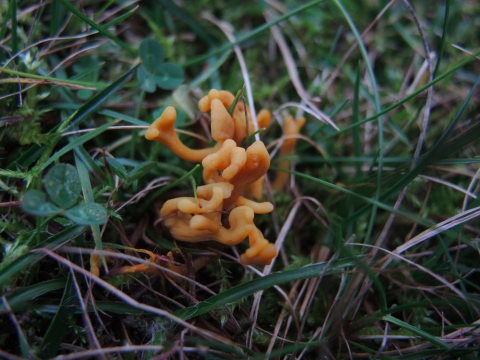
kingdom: Fungi
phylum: Basidiomycota
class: Agaricomycetes
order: Agaricales
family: Clavariaceae
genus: Clavulinopsis
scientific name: Clavulinopsis corniculata
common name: eng-køllesvamp
